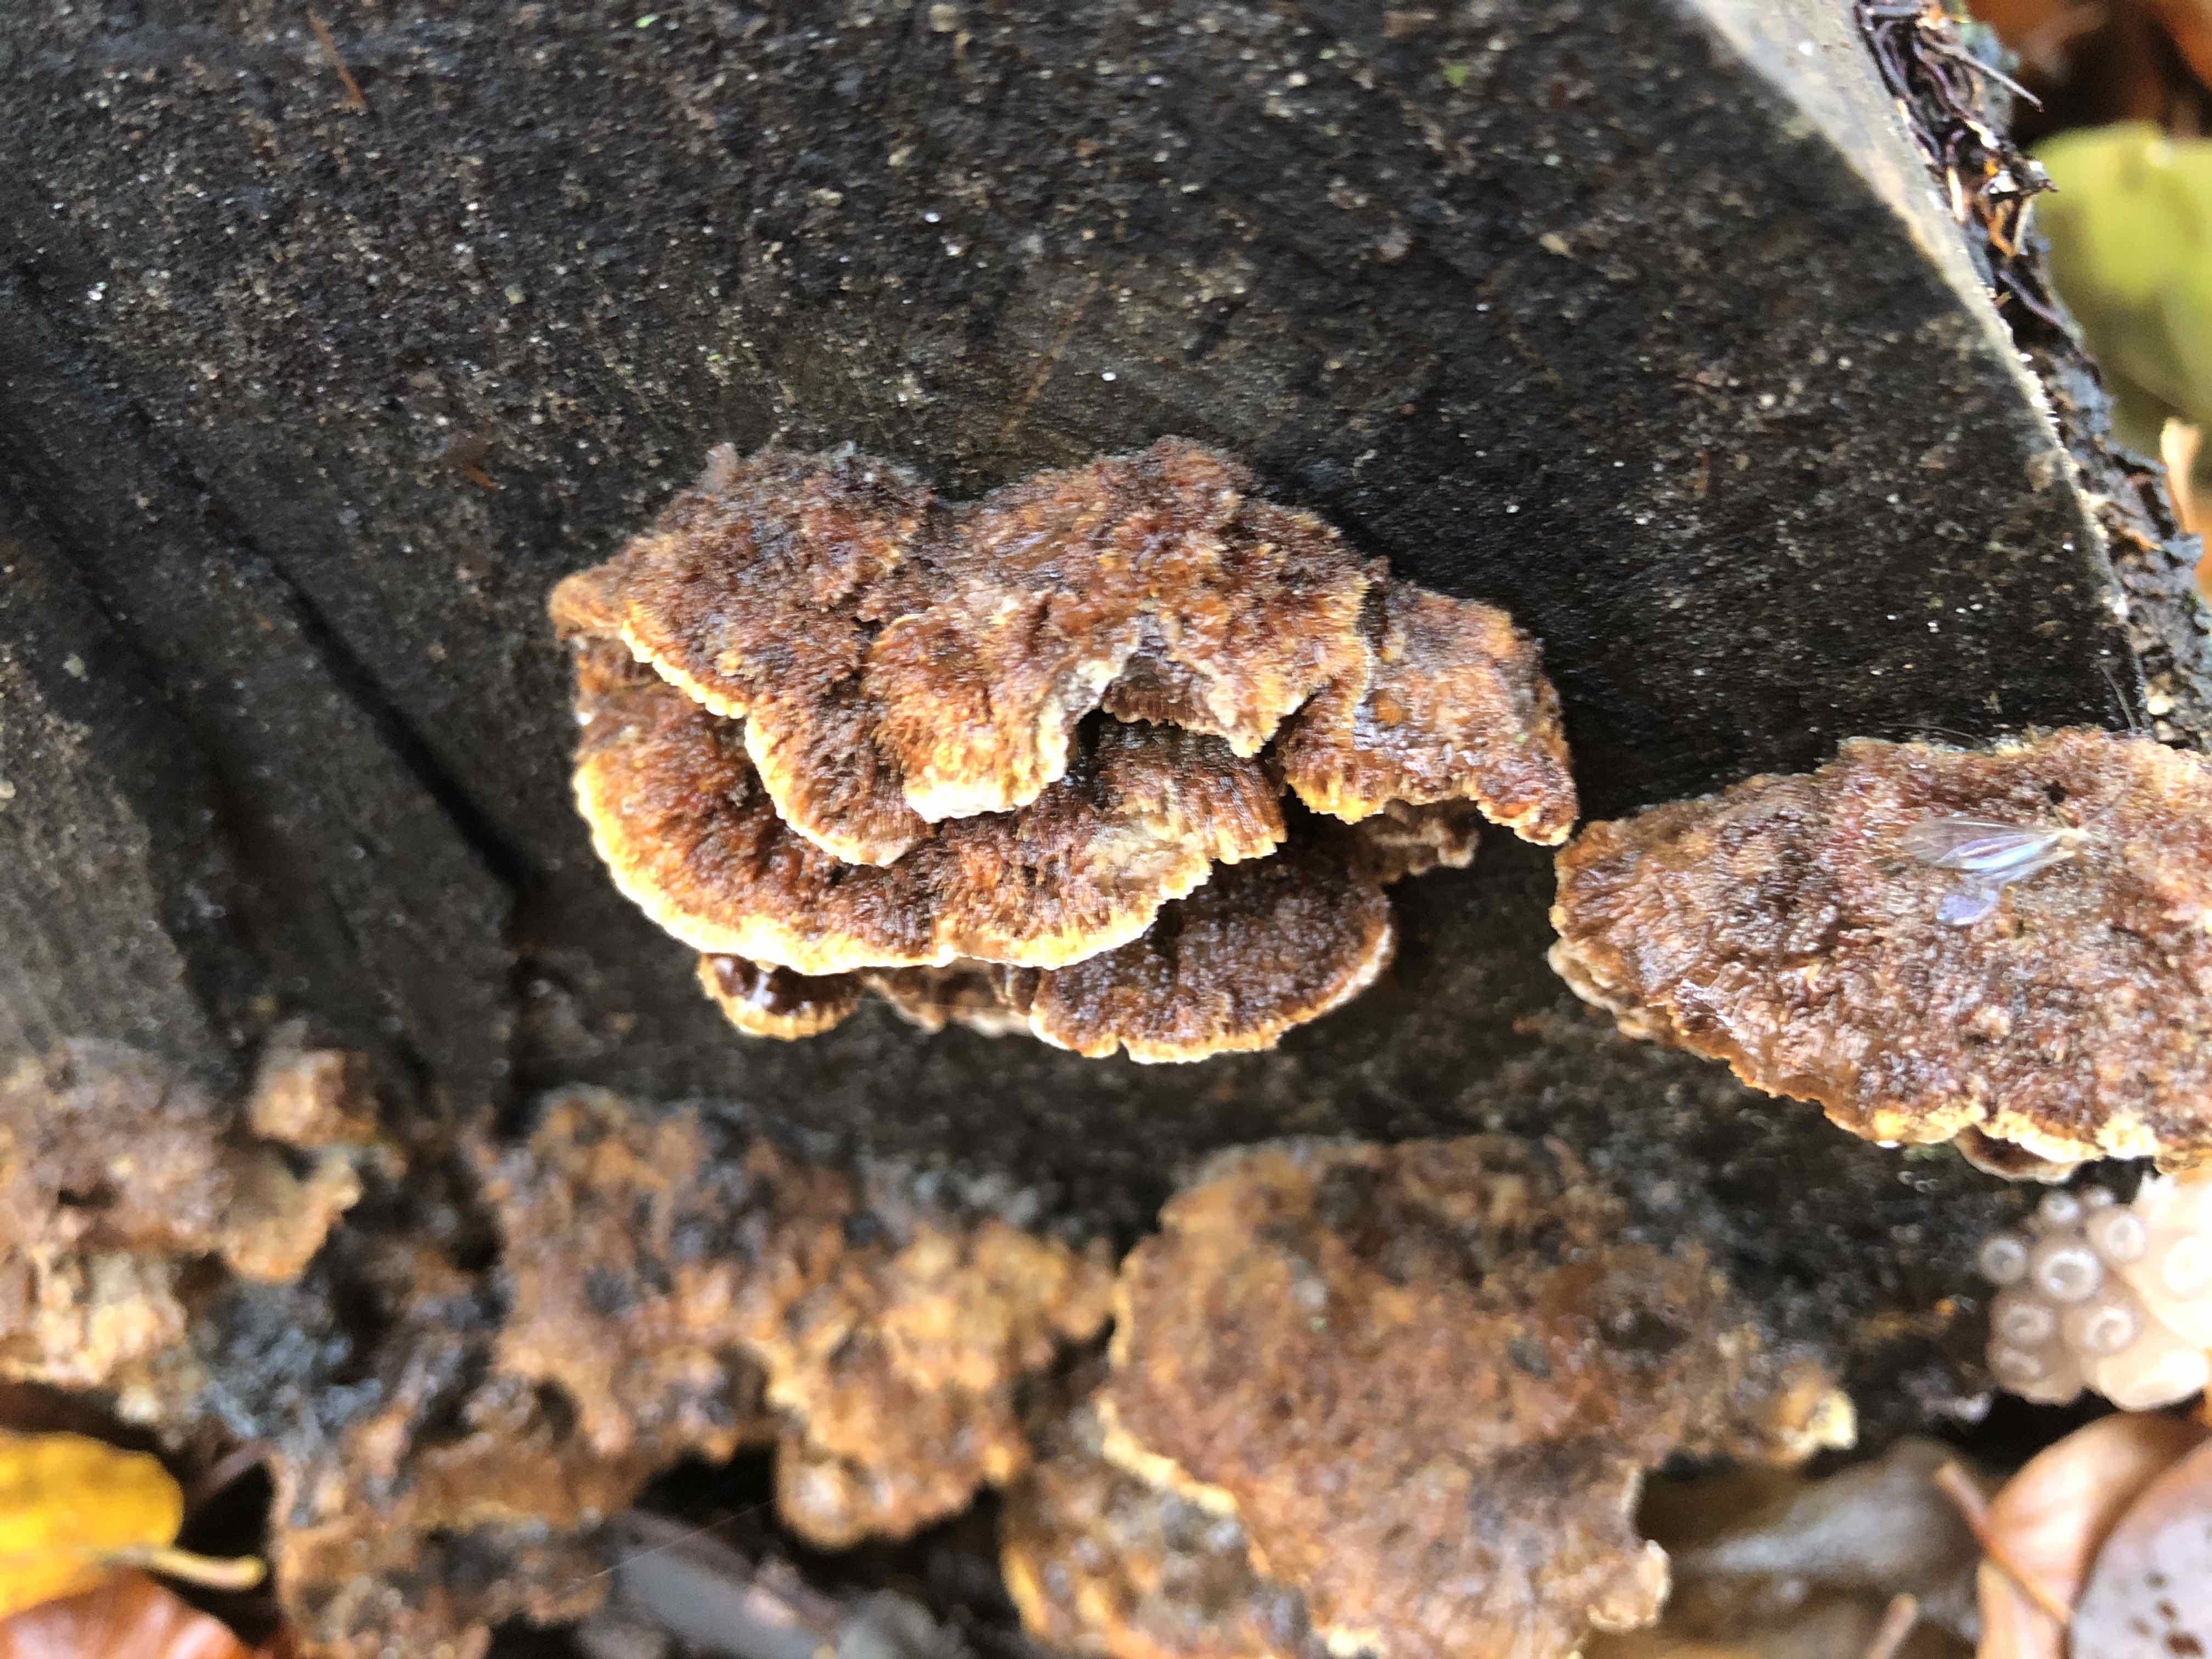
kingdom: Fungi
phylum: Basidiomycota
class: Agaricomycetes
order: Hymenochaetales
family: Hymenochaetaceae
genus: Mensularia
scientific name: Mensularia nodulosa
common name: bøge-spejlporesvamp
